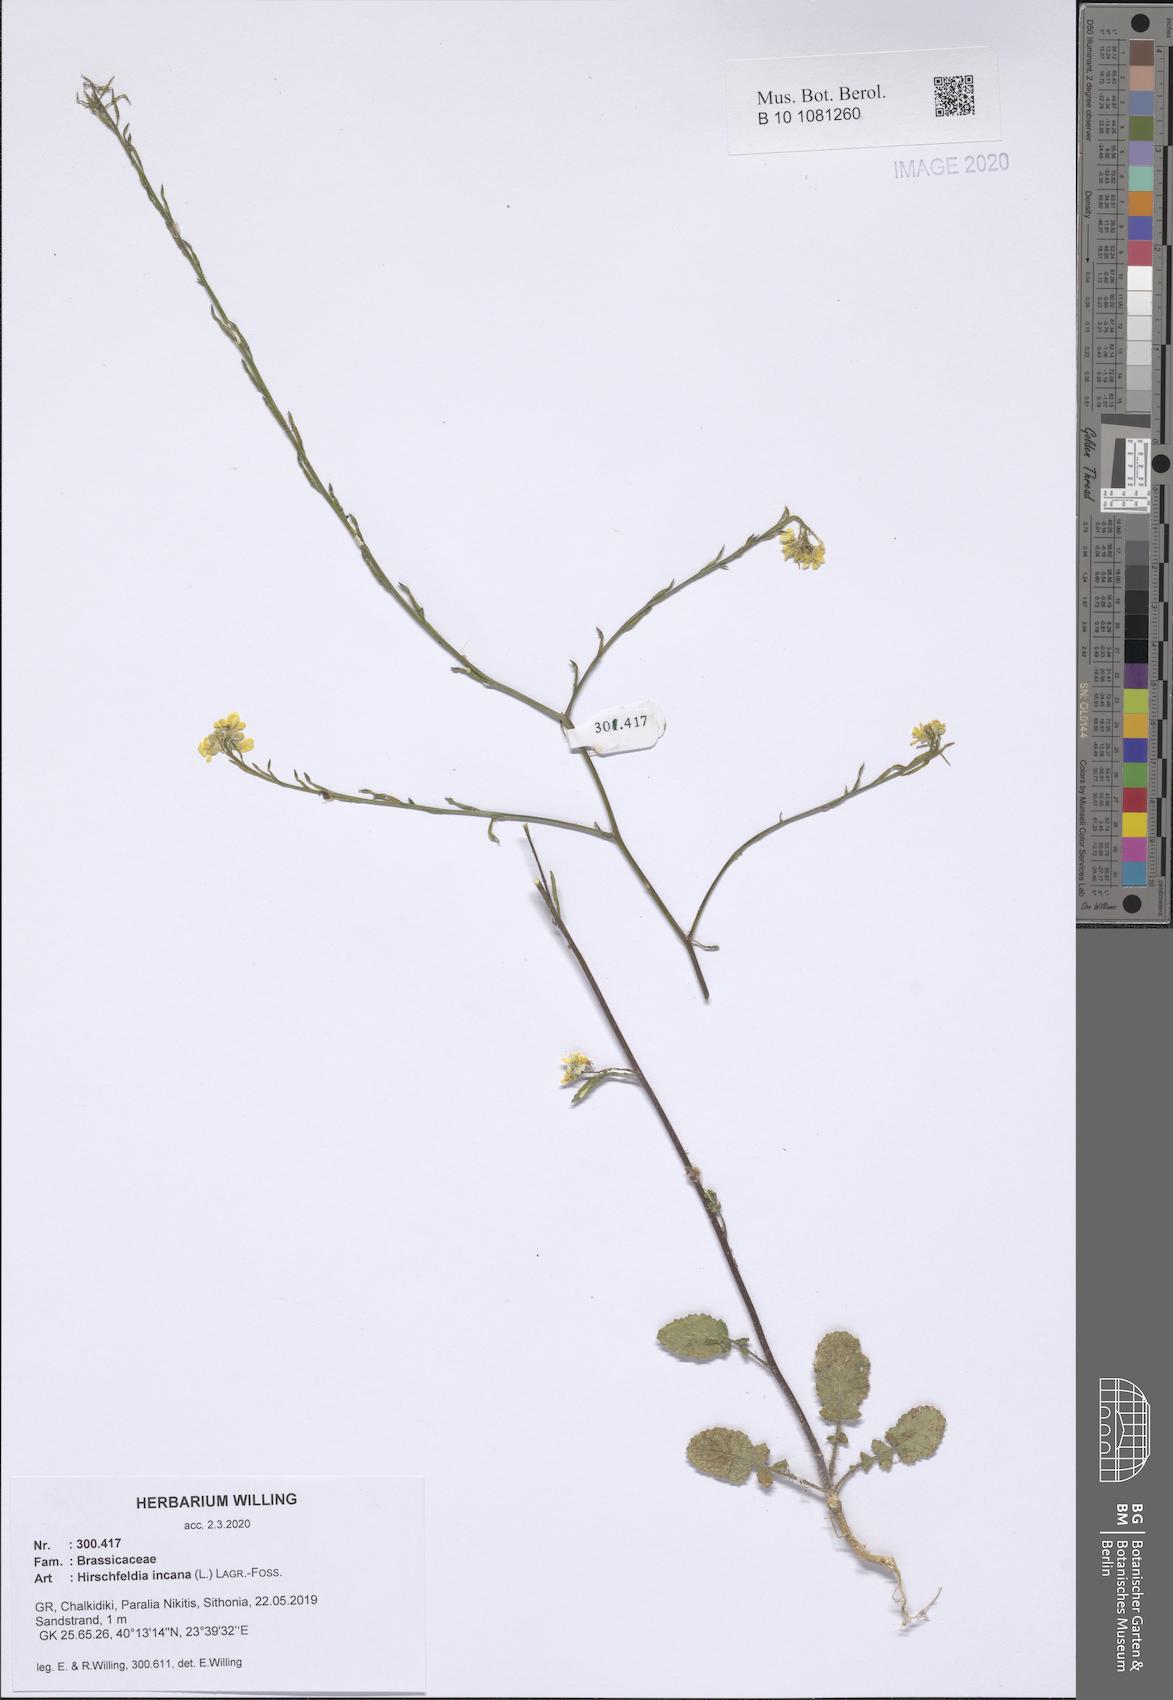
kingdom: Plantae
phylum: Tracheophyta
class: Magnoliopsida
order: Brassicales
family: Brassicaceae
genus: Hirschfeldia
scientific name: Hirschfeldia incana
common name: Hoary mustard
